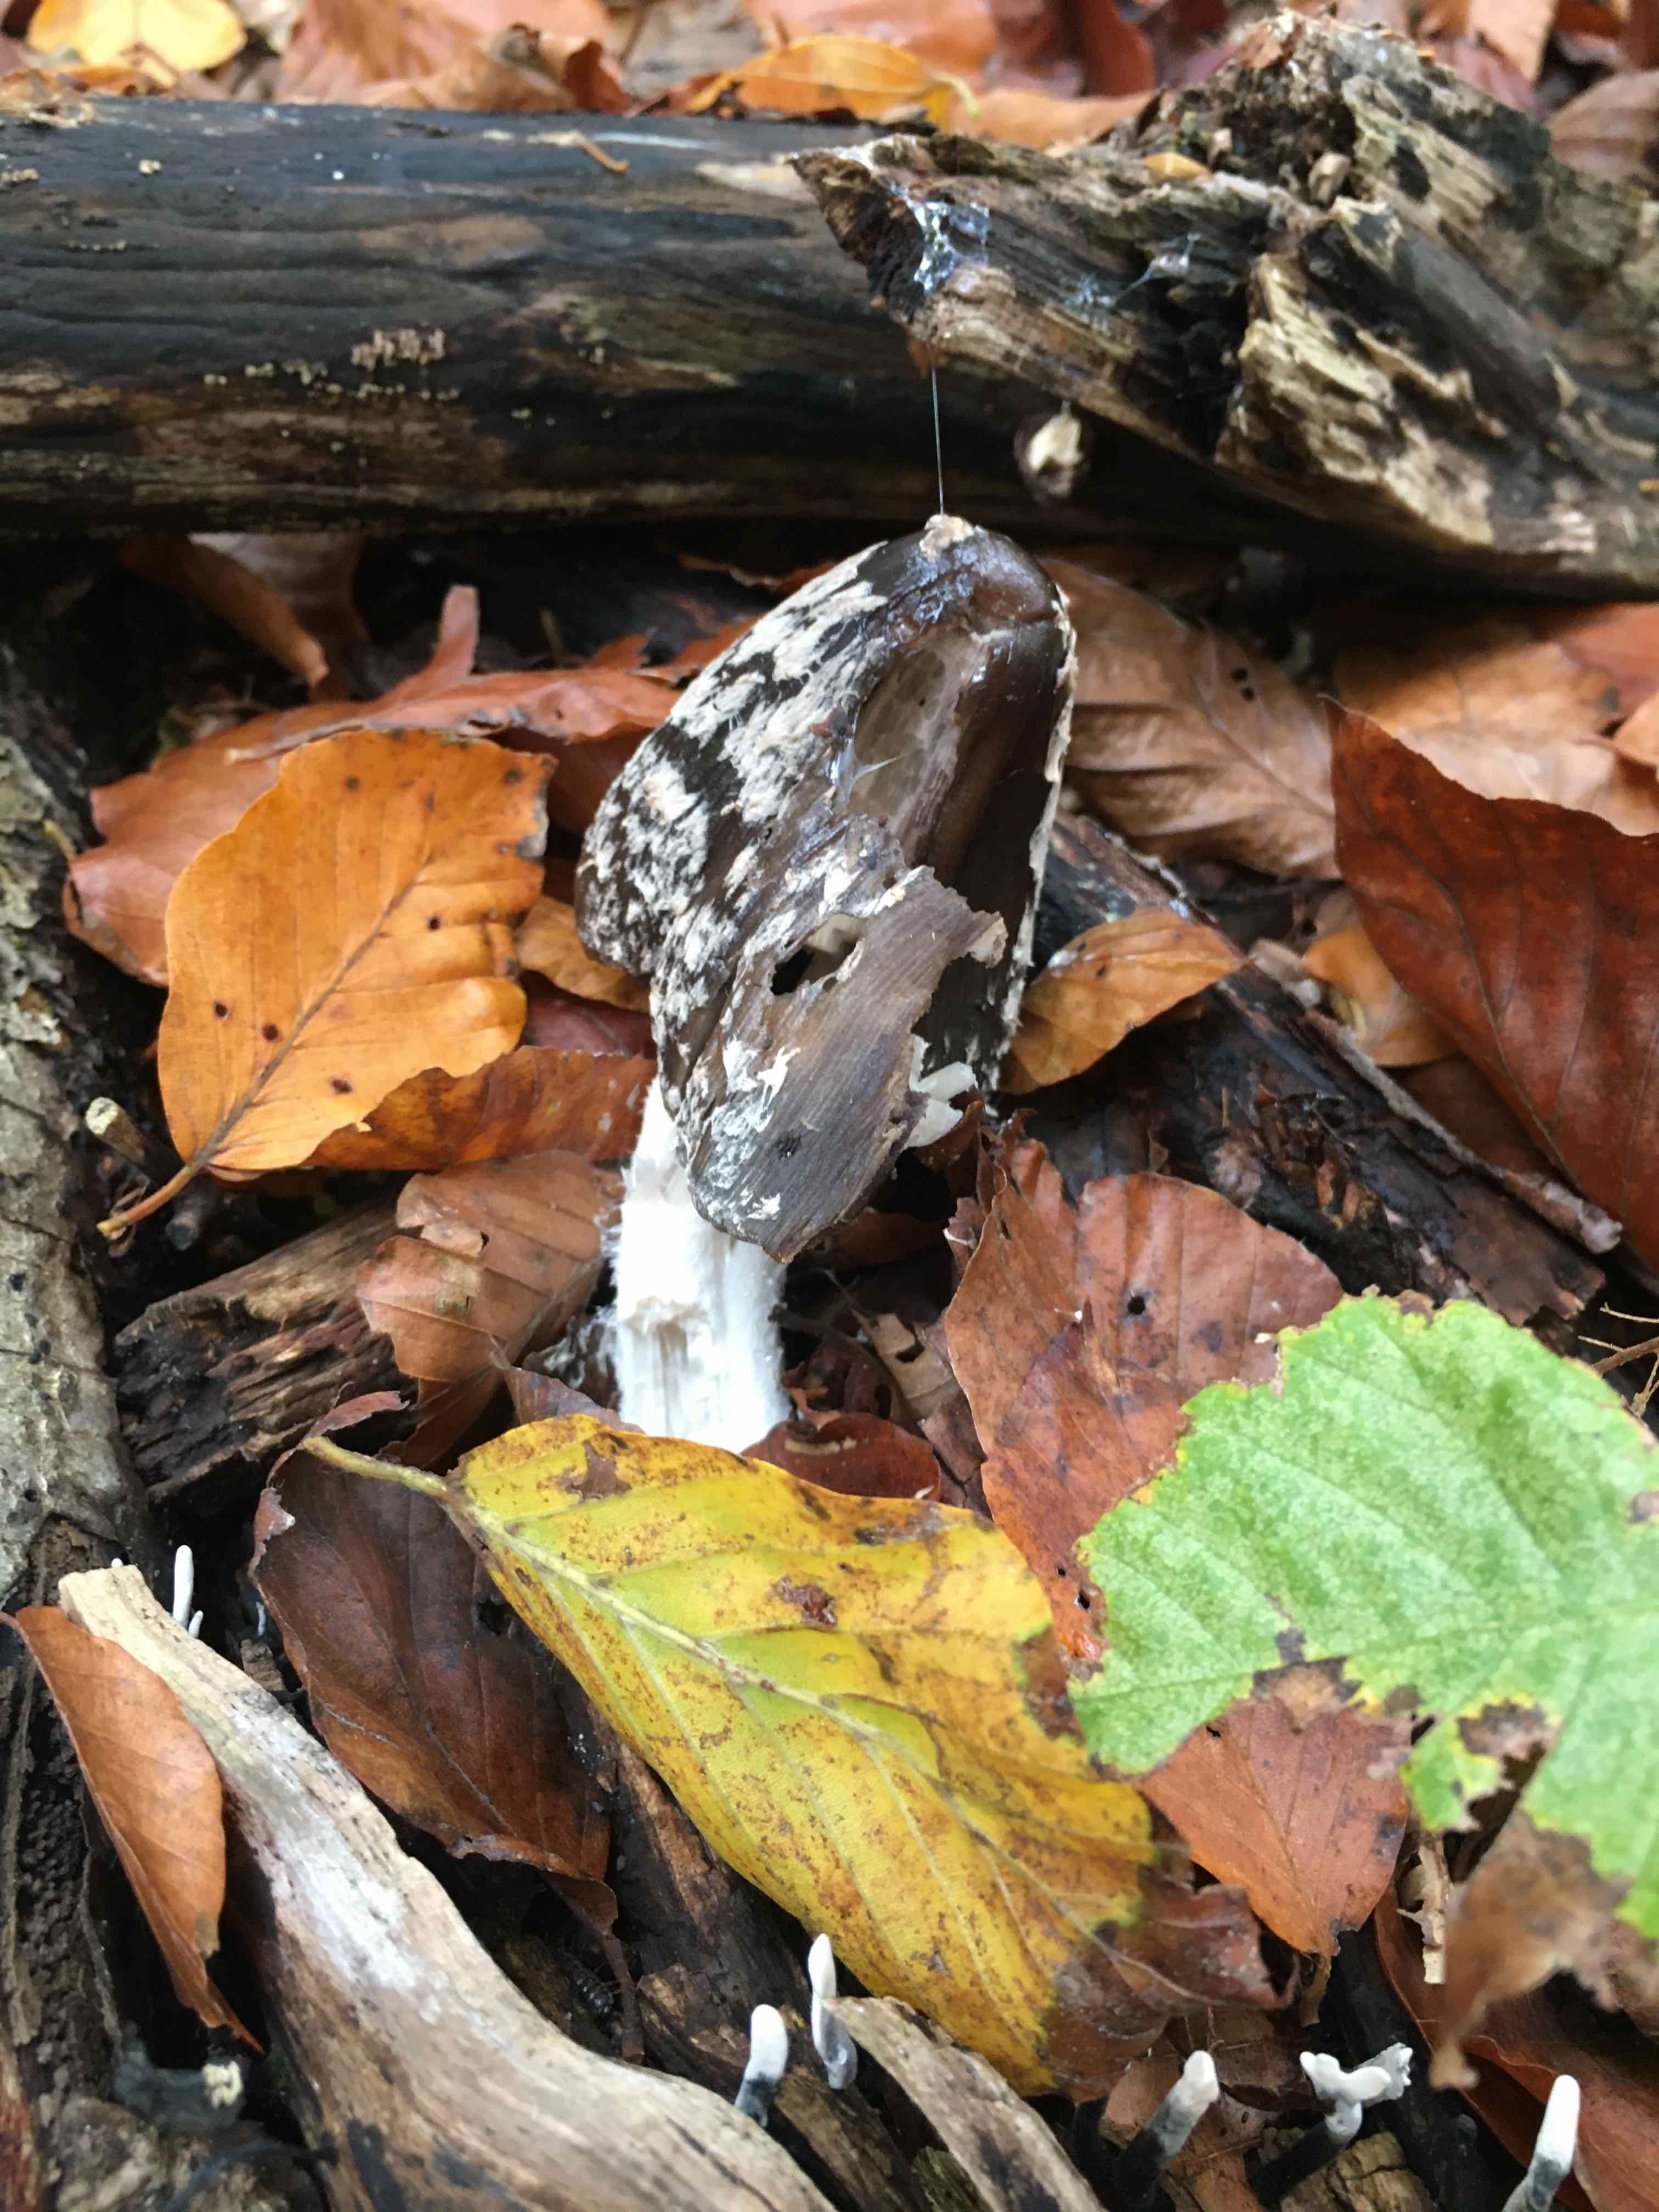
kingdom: Fungi
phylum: Basidiomycota
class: Agaricomycetes
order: Agaricales
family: Psathyrellaceae
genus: Coprinopsis
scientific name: Coprinopsis picacea
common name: skade-blækhat
